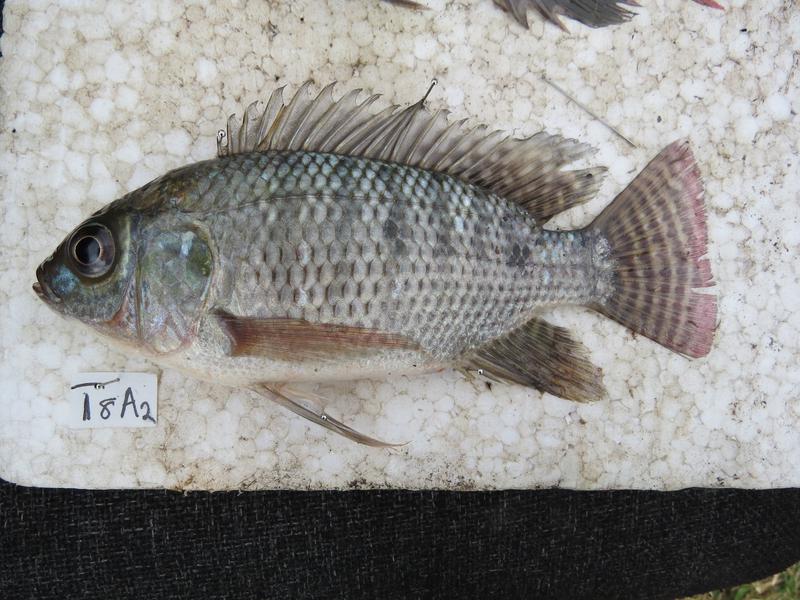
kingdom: Animalia
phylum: Chordata
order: Perciformes
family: Cichlidae
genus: Oreochromis
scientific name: Oreochromis niloticus
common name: Nile tilapia
